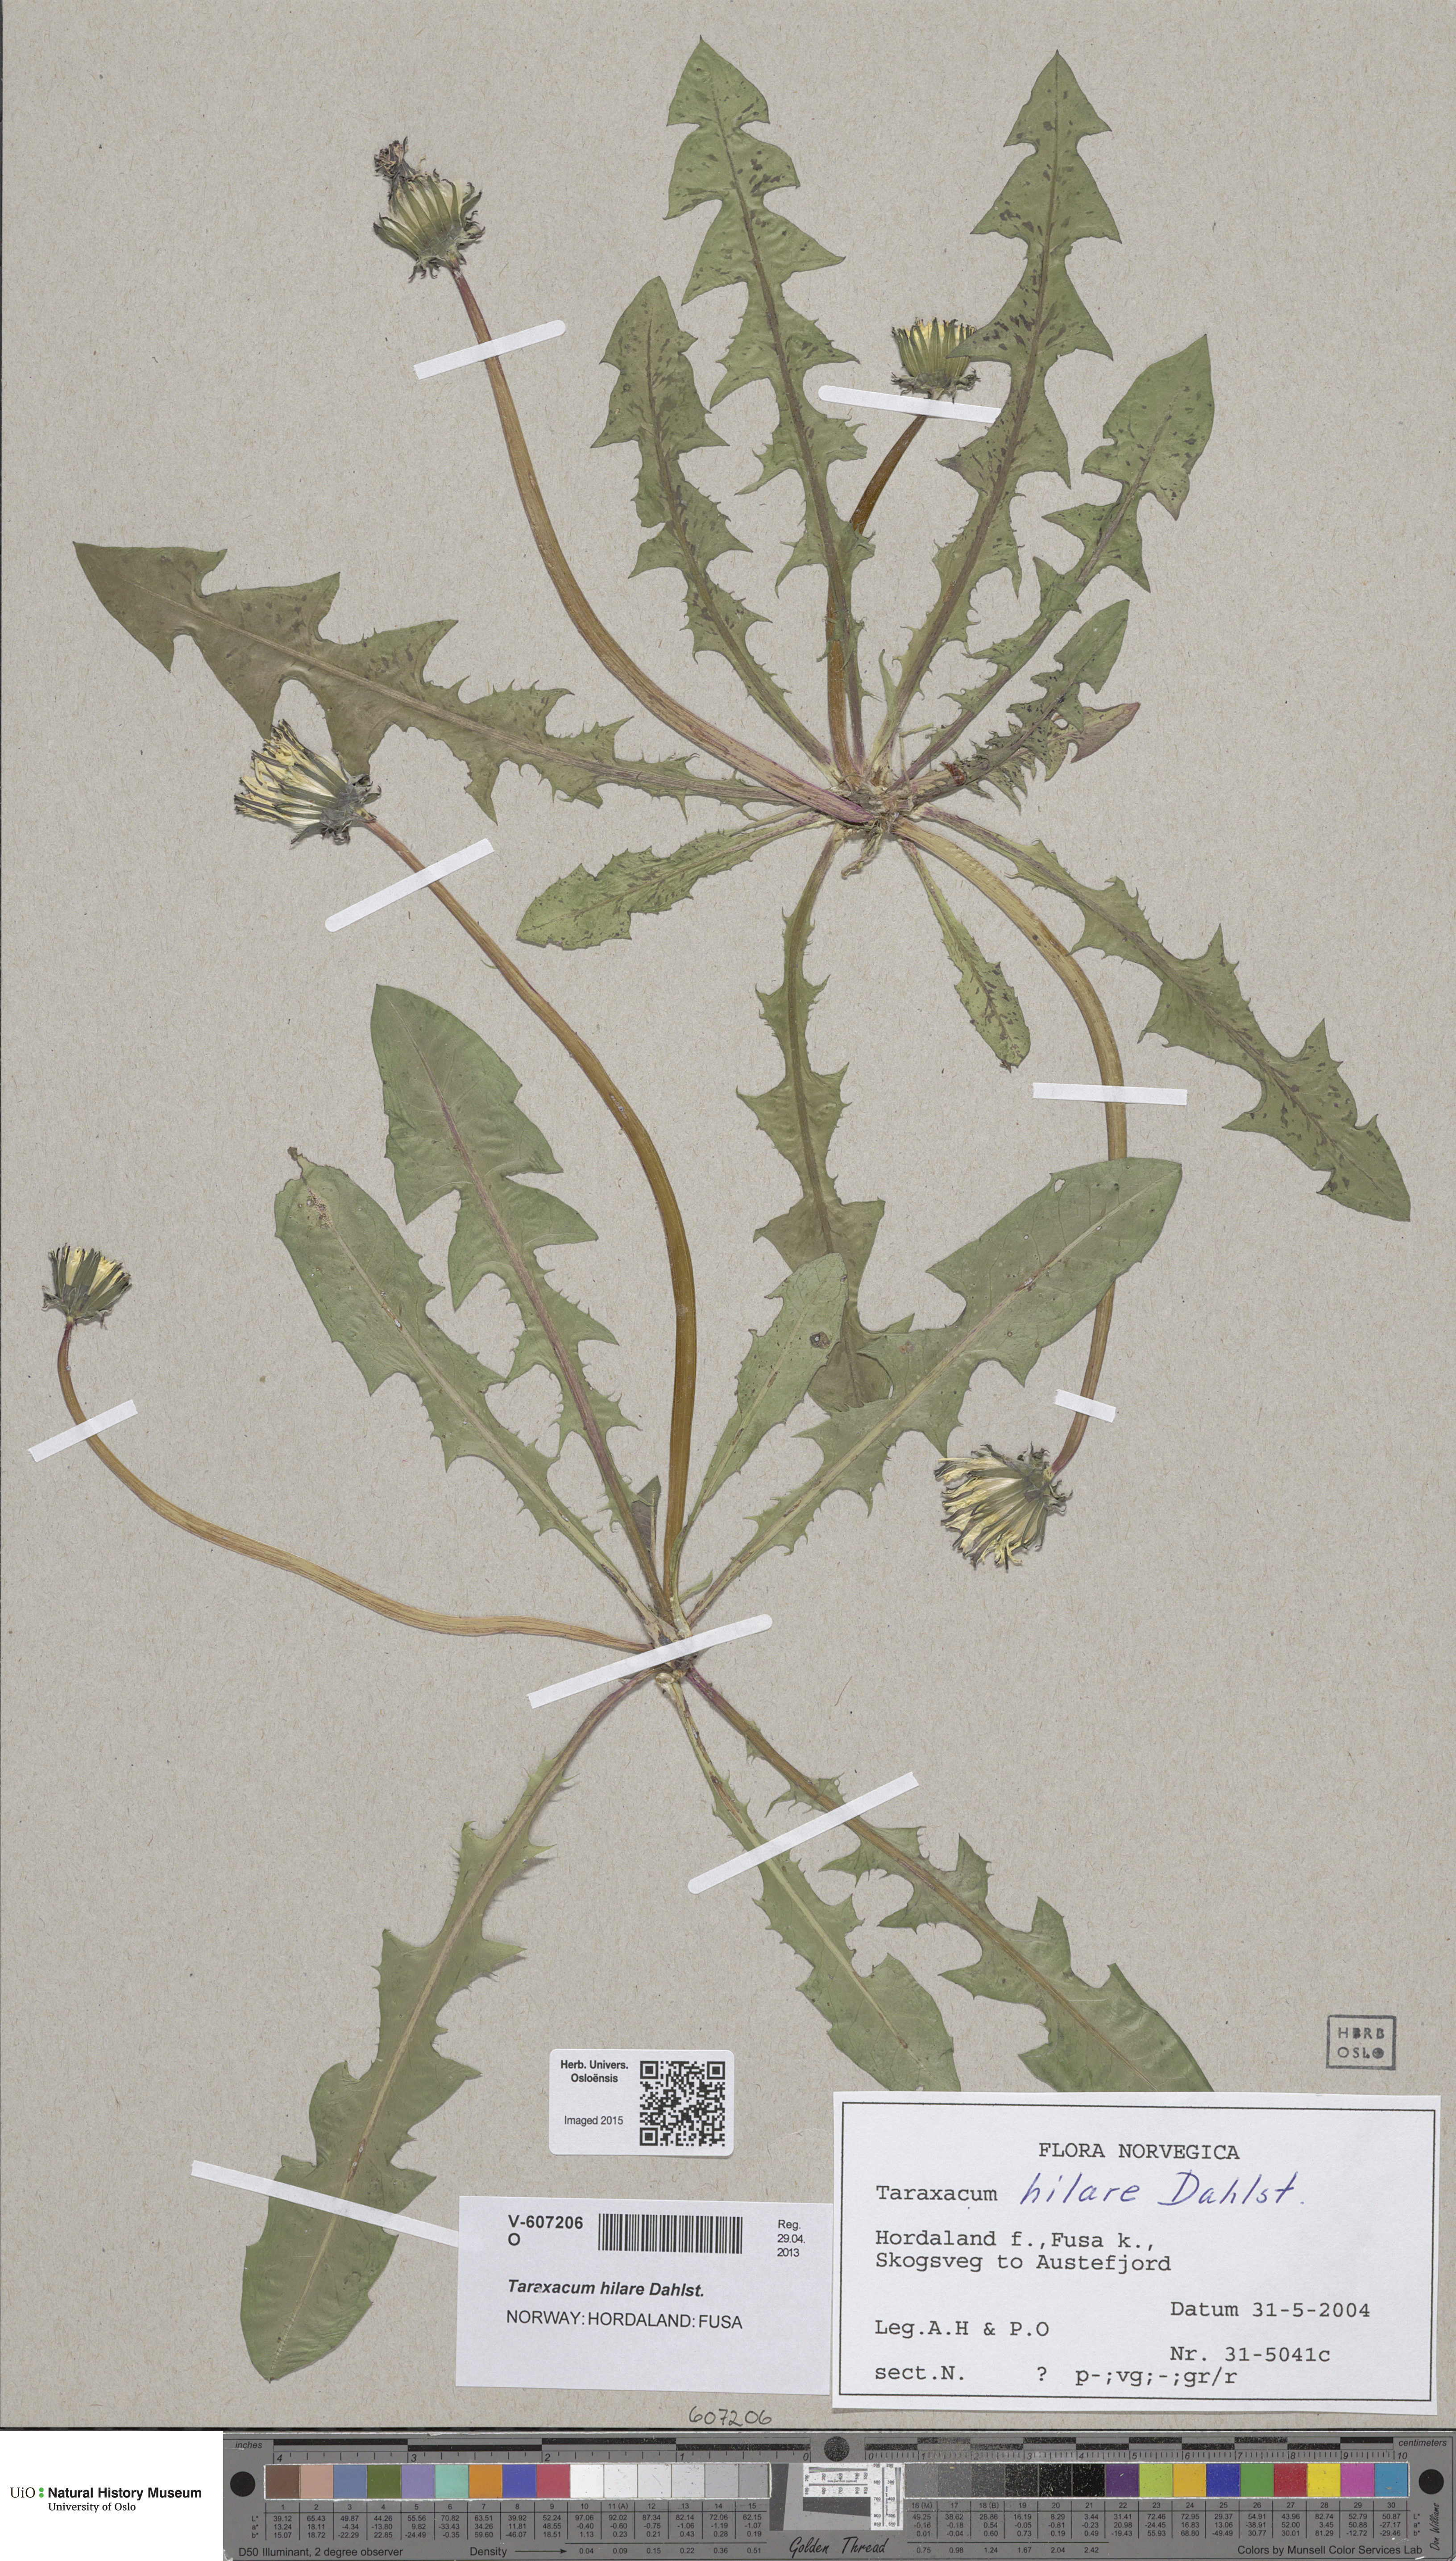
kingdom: Plantae
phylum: Tracheophyta
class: Magnoliopsida
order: Asterales
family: Asteraceae
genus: Taraxacum
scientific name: Taraxacum hilare
